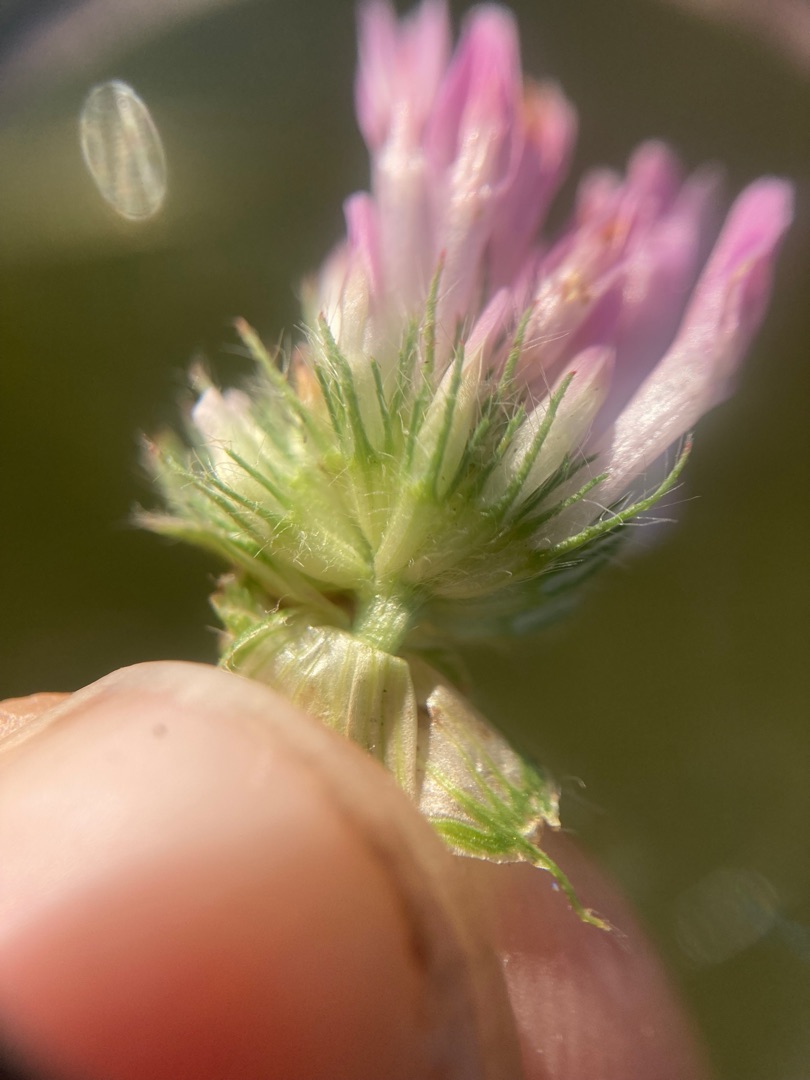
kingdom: Plantae
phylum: Tracheophyta
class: Magnoliopsida
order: Fabales
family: Fabaceae
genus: Trifolium
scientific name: Trifolium pratense
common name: Rød-kløver
